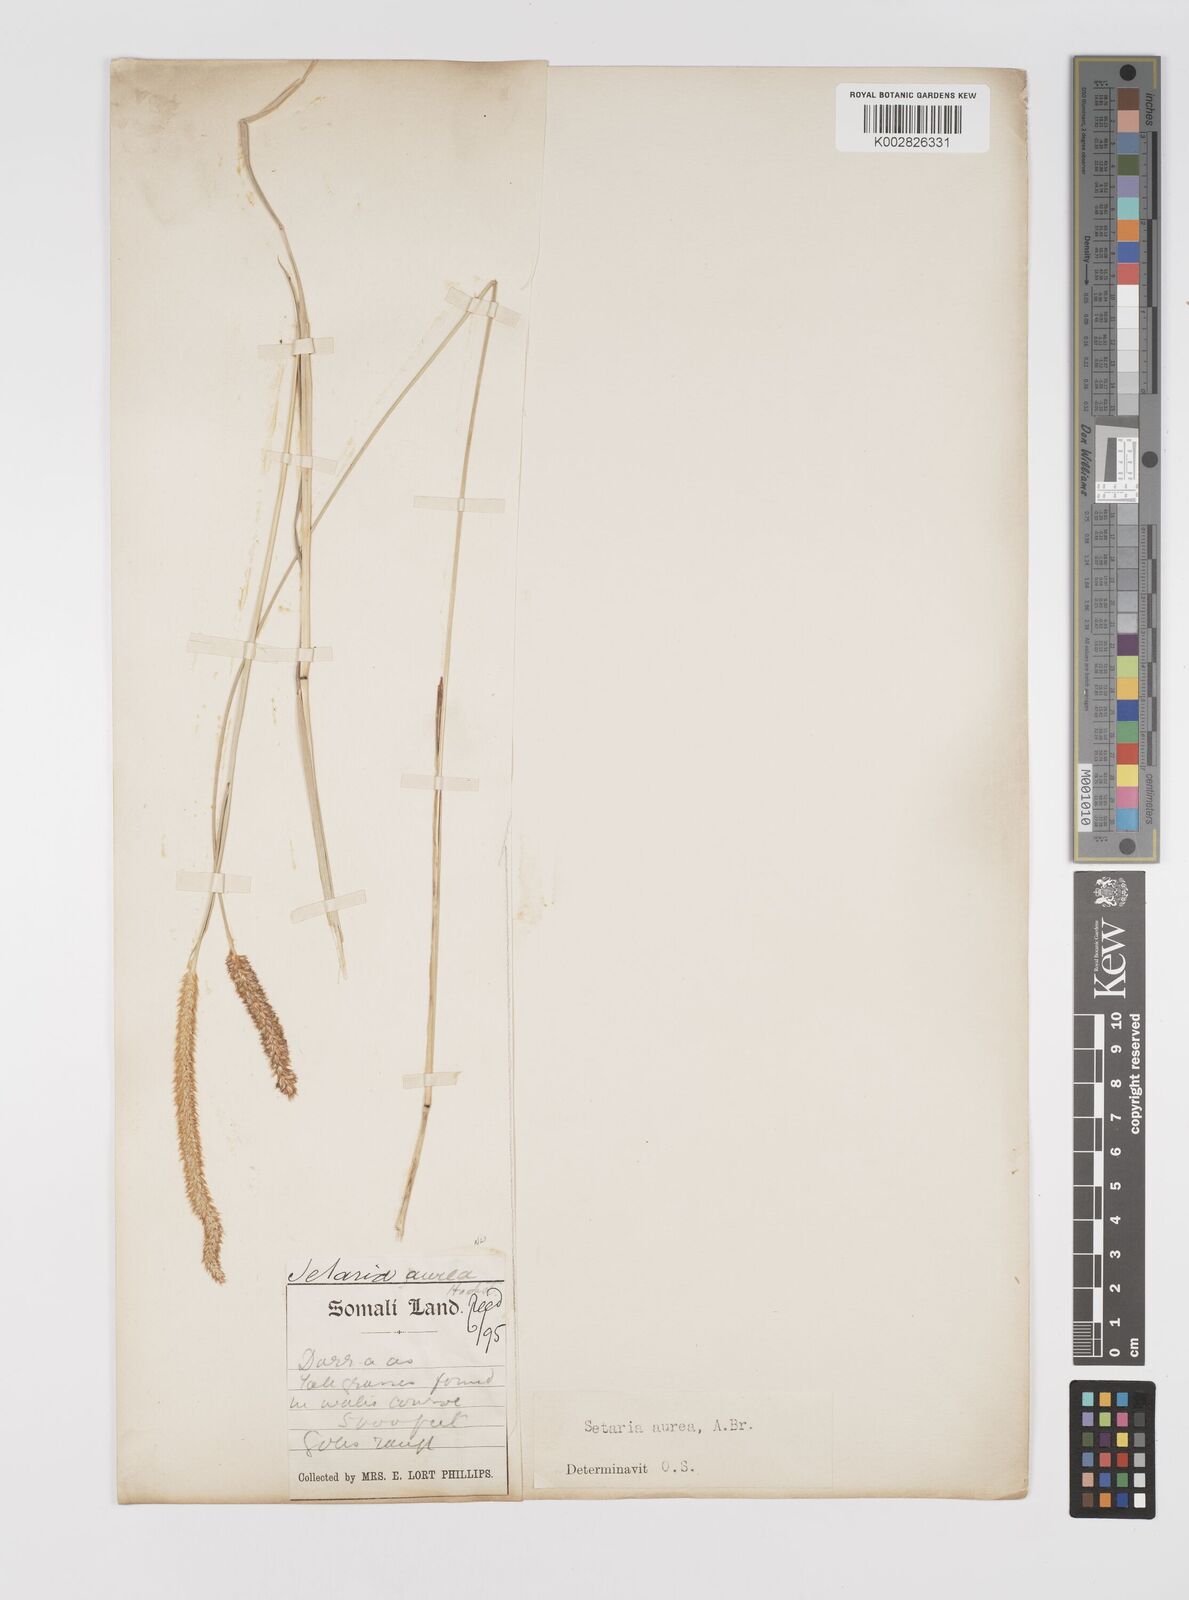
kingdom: Plantae
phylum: Tracheophyta
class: Liliopsida
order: Poales
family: Poaceae
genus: Setaria
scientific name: Setaria sphacelata
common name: African bristlegrass
